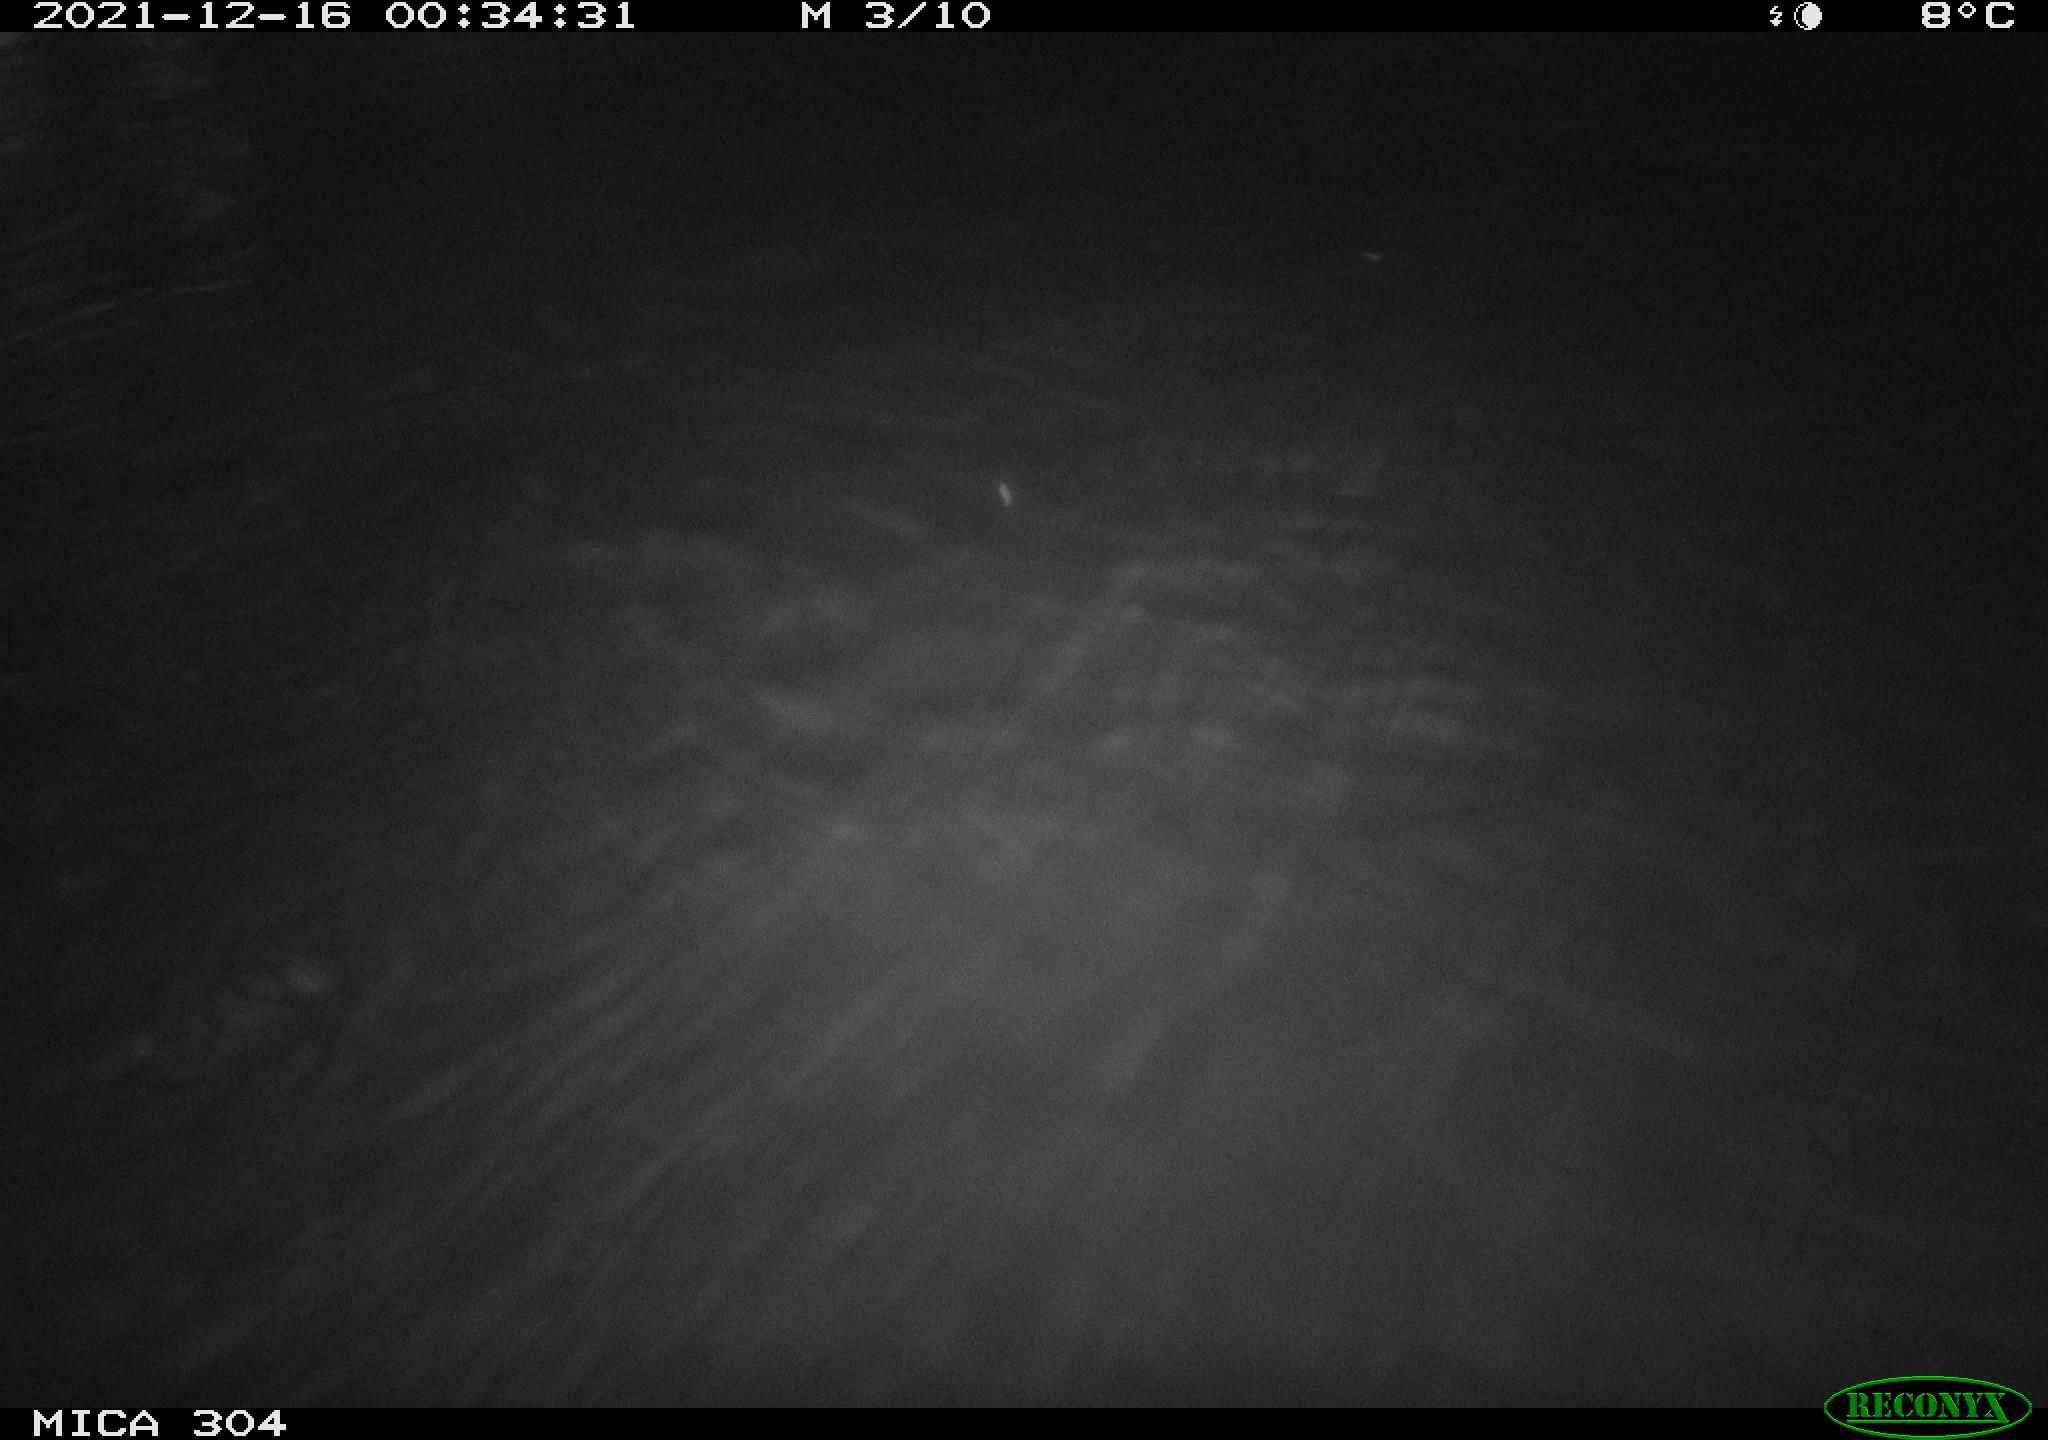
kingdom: Animalia
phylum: Chordata
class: Mammalia
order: Rodentia
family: Muridae
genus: Rattus
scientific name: Rattus norvegicus
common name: Brown rat
